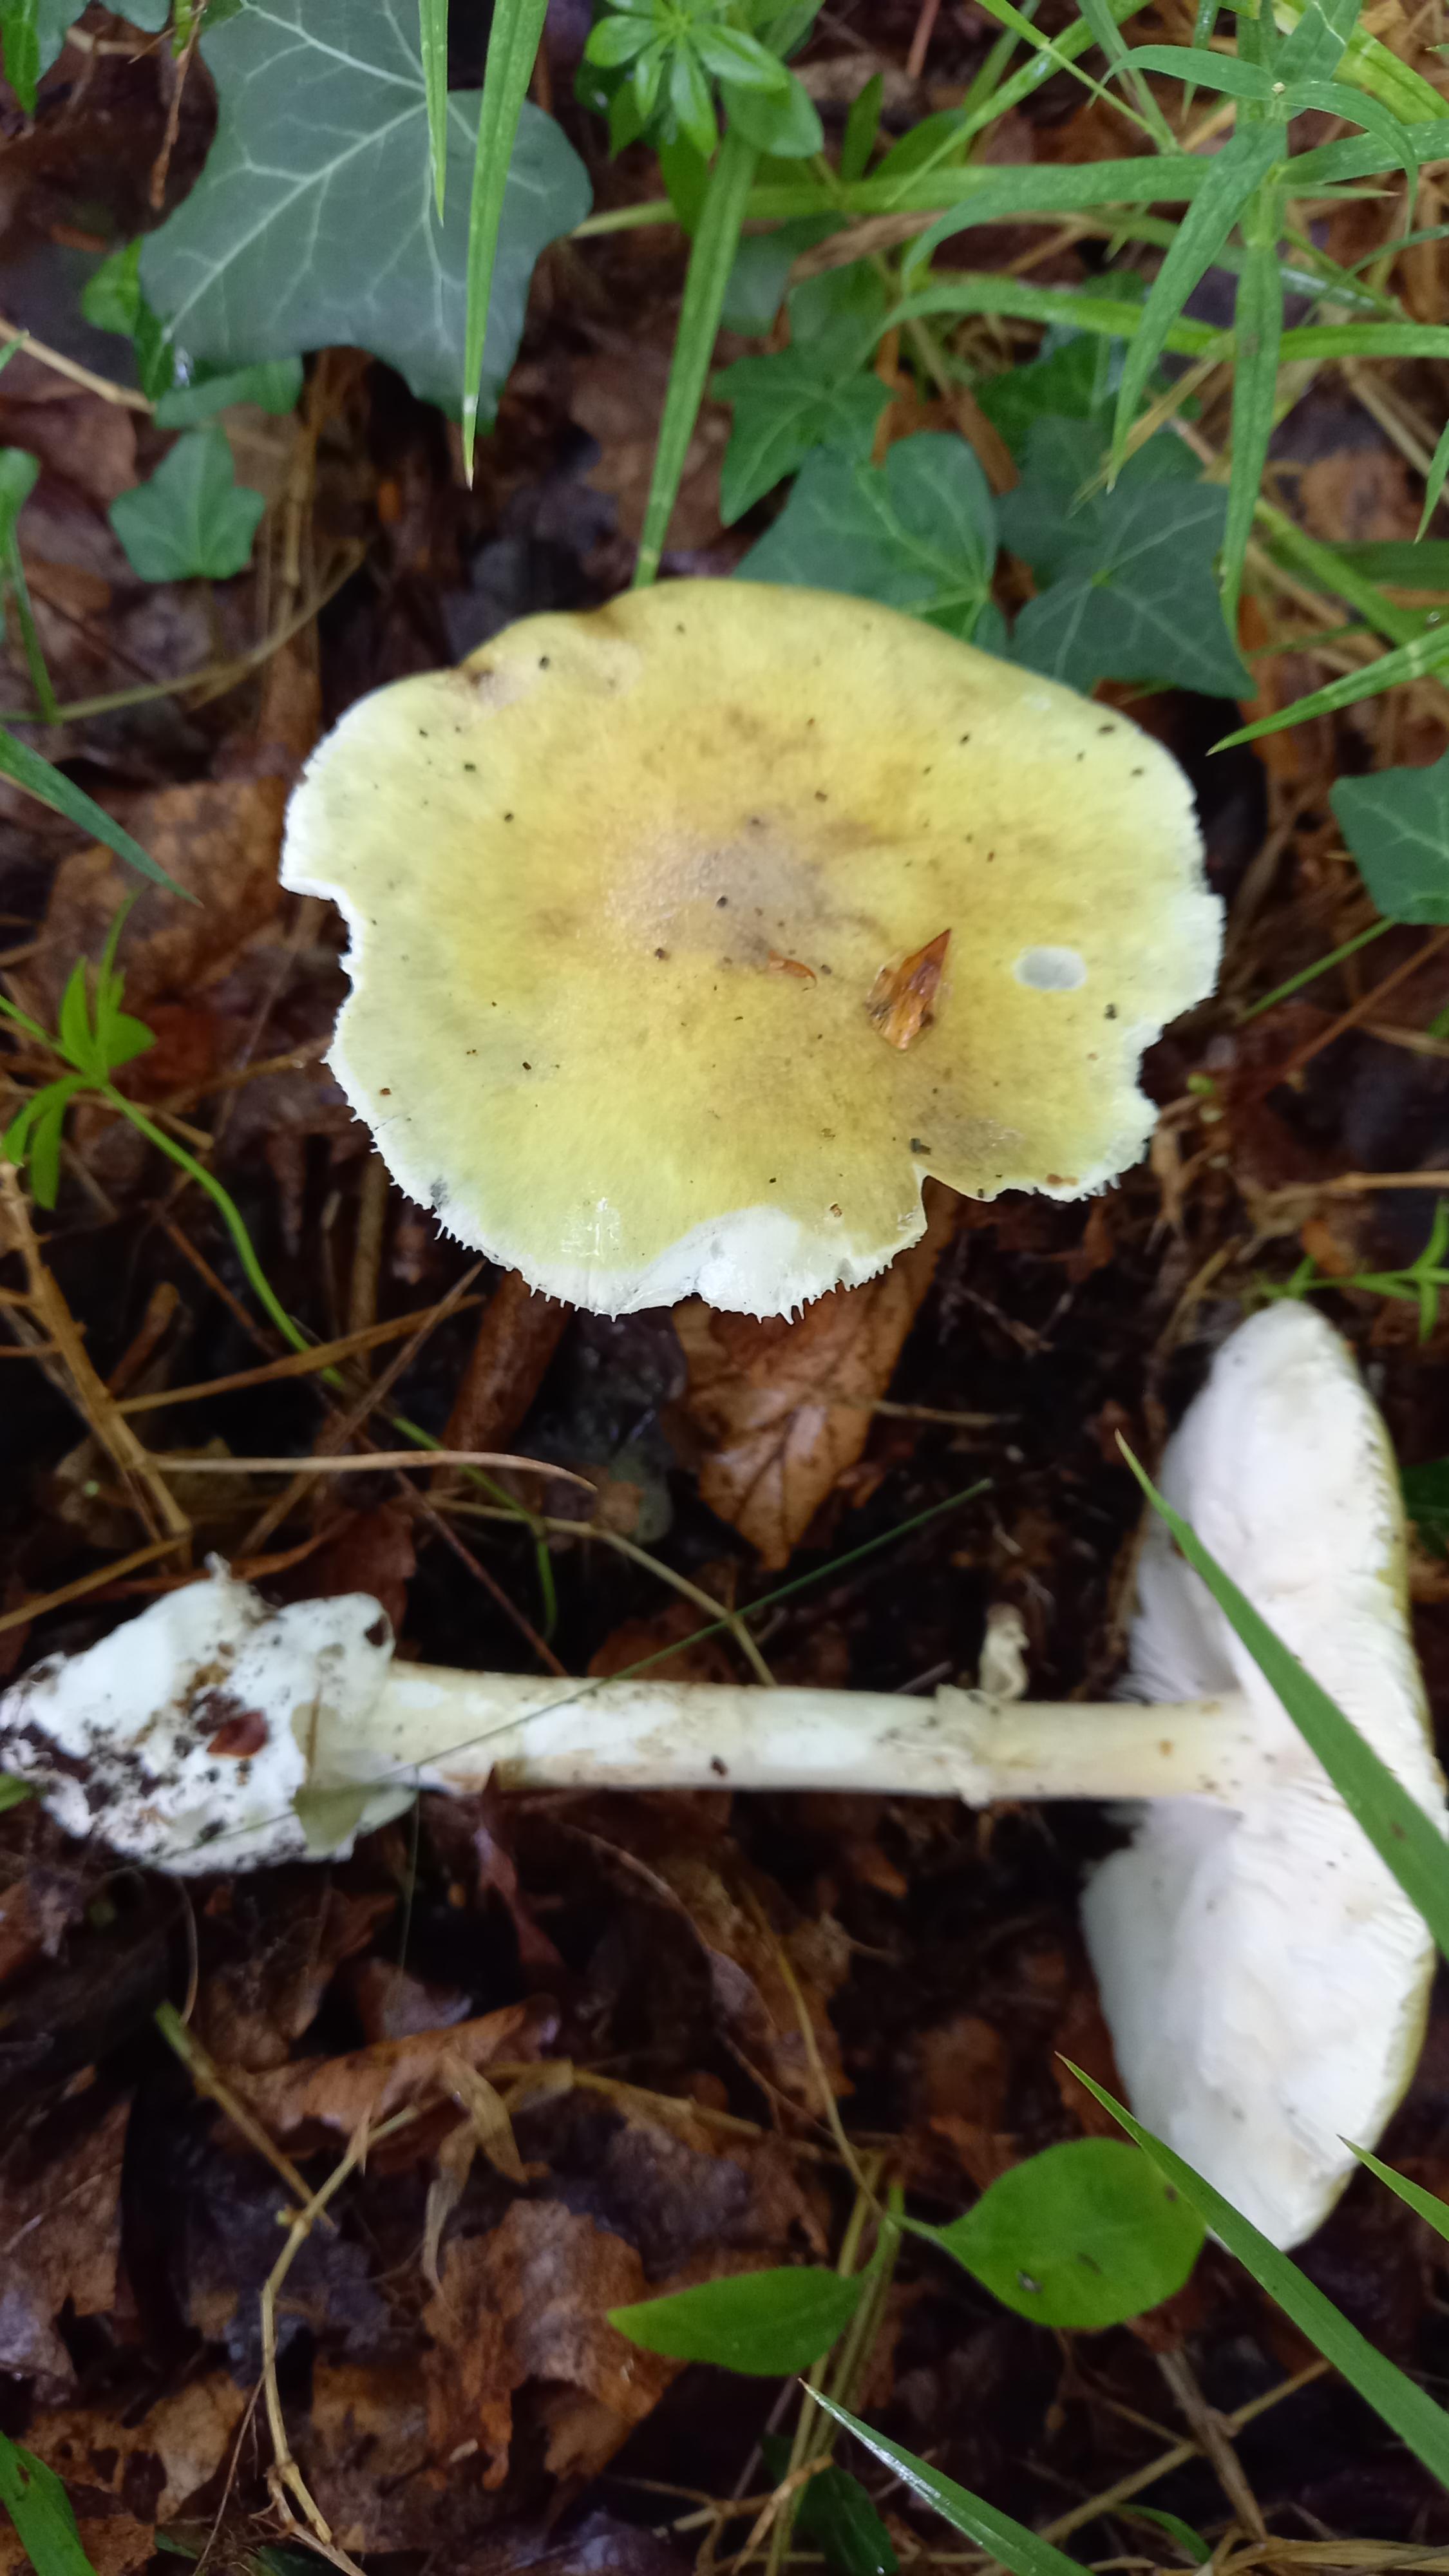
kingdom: Fungi
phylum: Basidiomycota
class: Agaricomycetes
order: Agaricales
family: Amanitaceae
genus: Amanita
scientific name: Amanita phalloides
